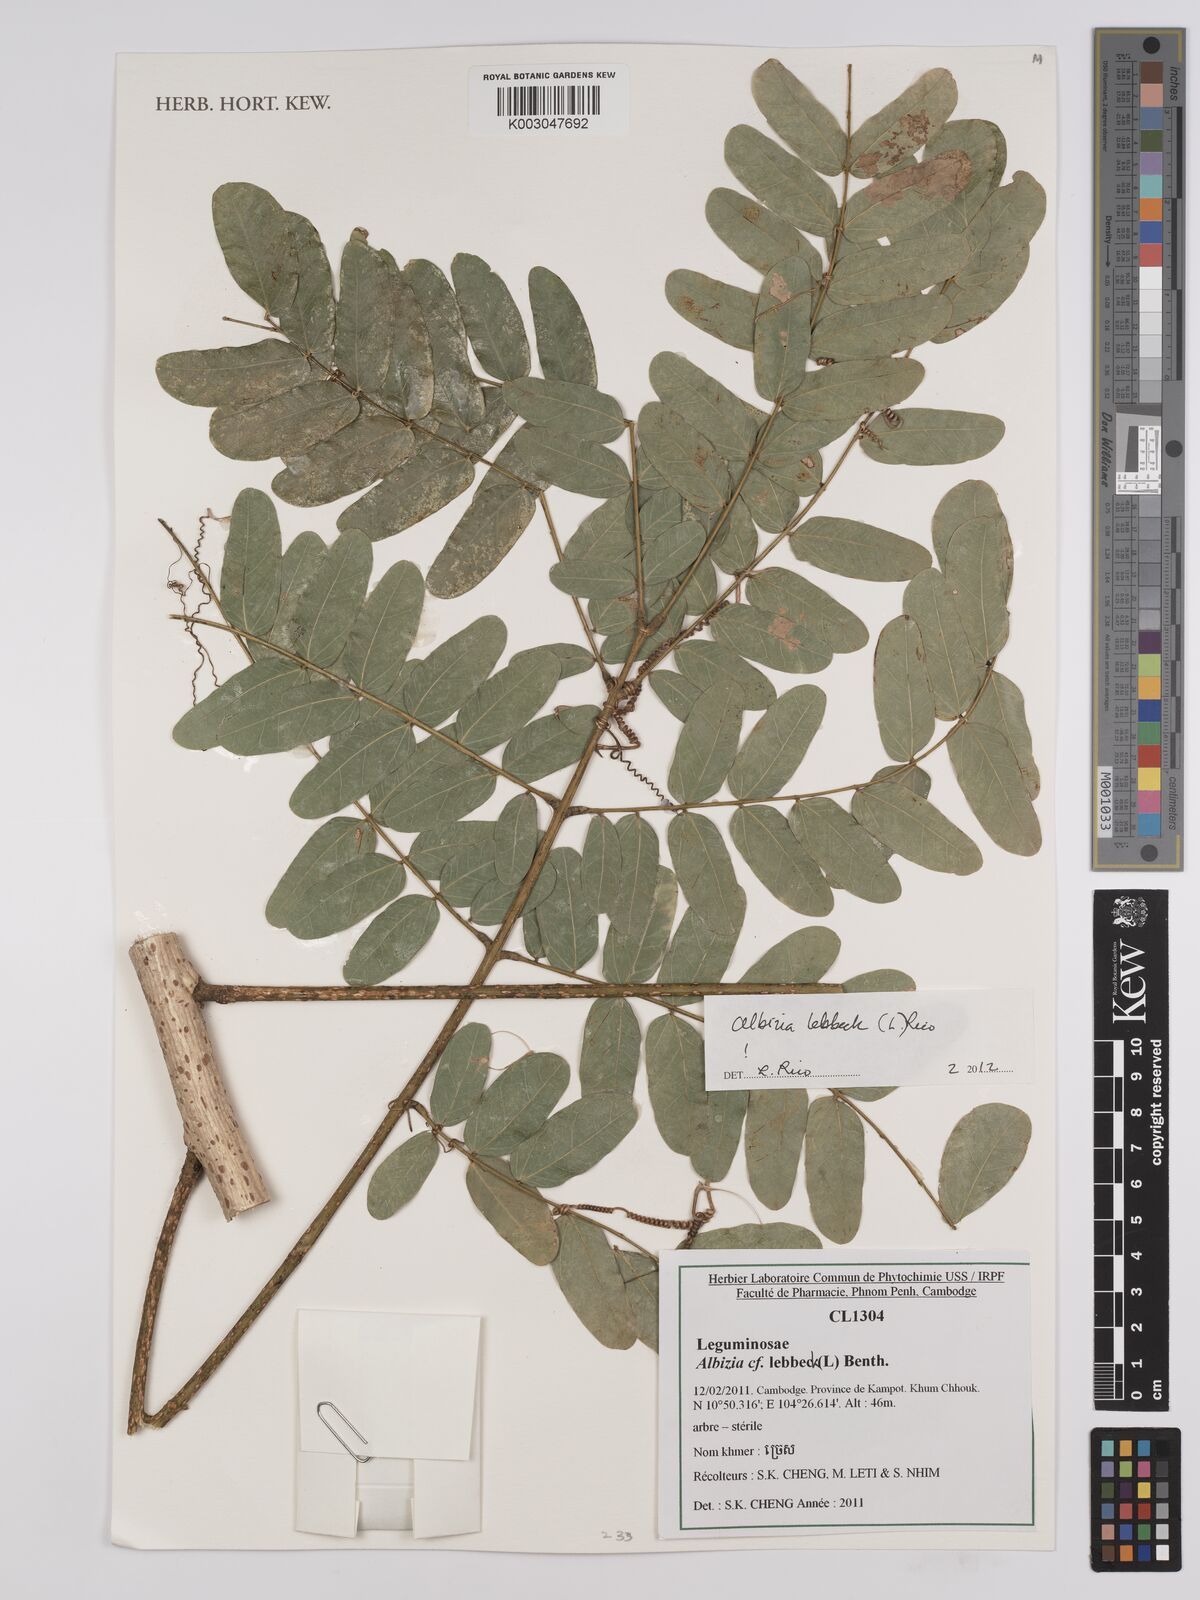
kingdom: Plantae
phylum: Tracheophyta
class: Magnoliopsida
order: Fabales
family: Fabaceae
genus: Albizia
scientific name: Albizia lebbeck
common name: Woman's tongue
